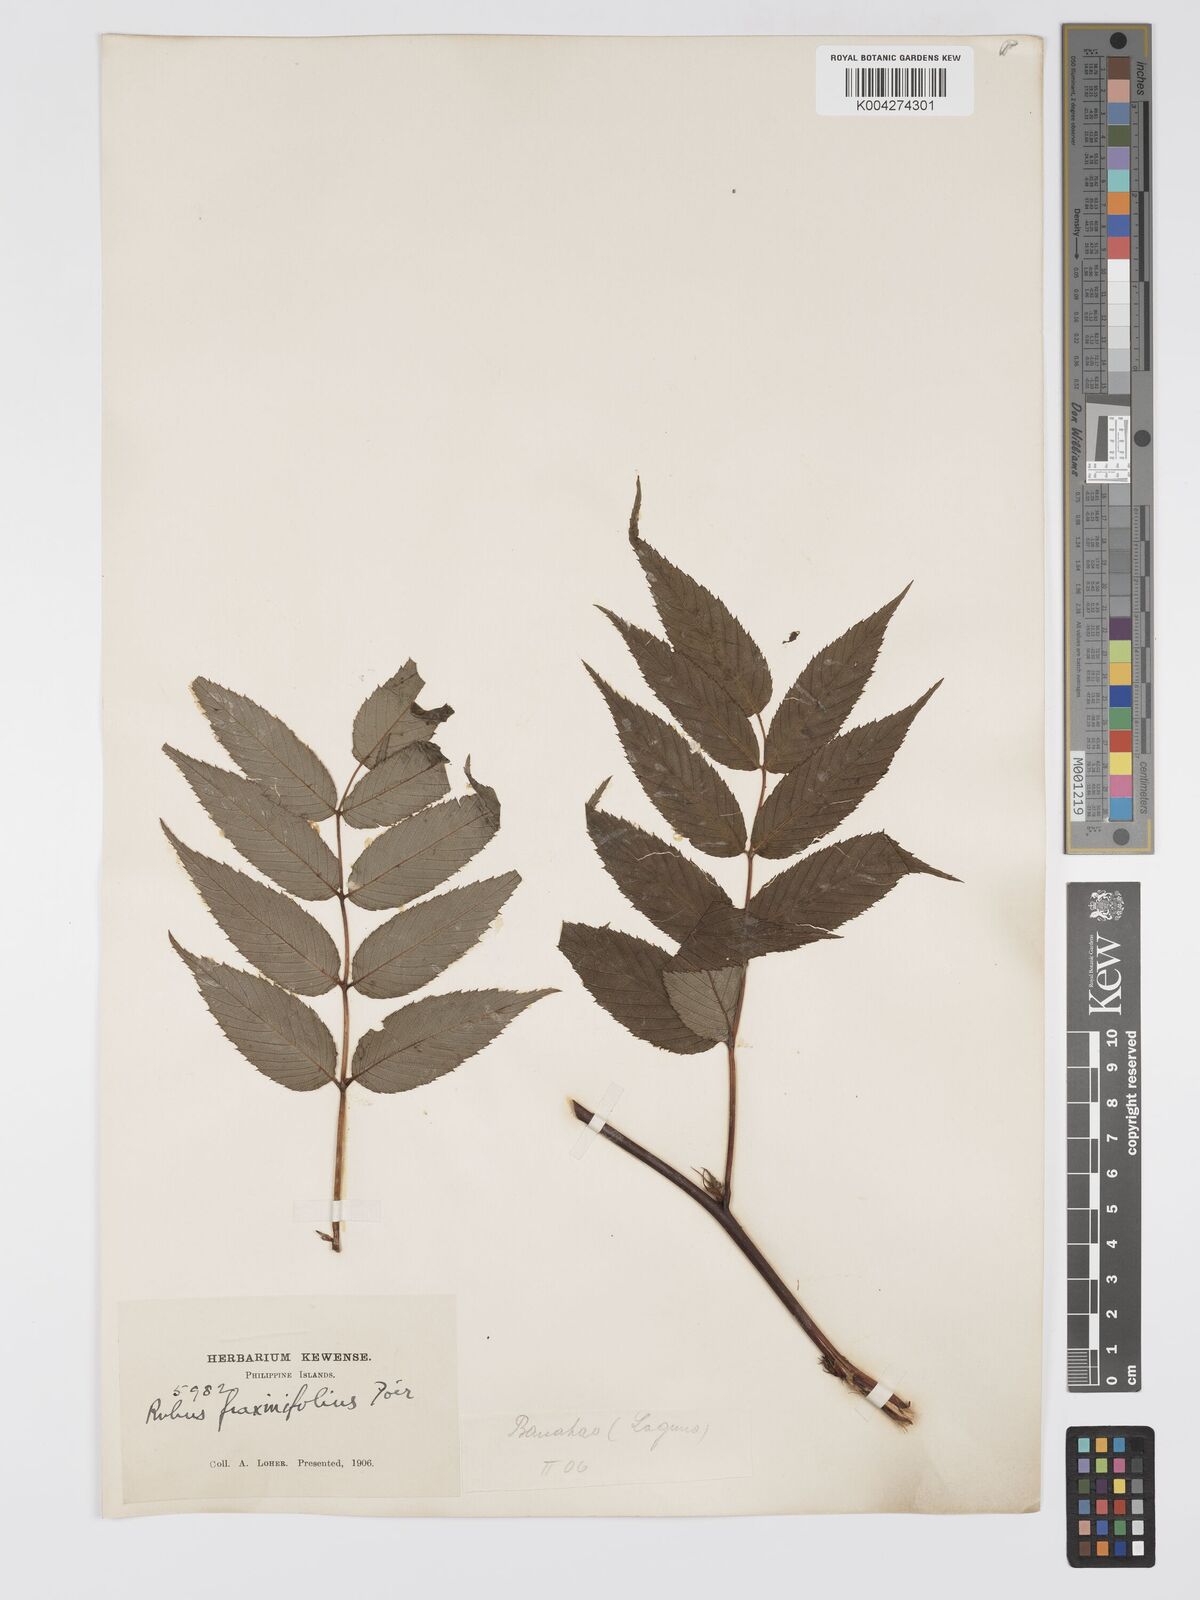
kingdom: Plantae
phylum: Tracheophyta
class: Magnoliopsida
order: Rosales
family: Rosaceae
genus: Rubus
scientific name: Rubus fraxinifolius
